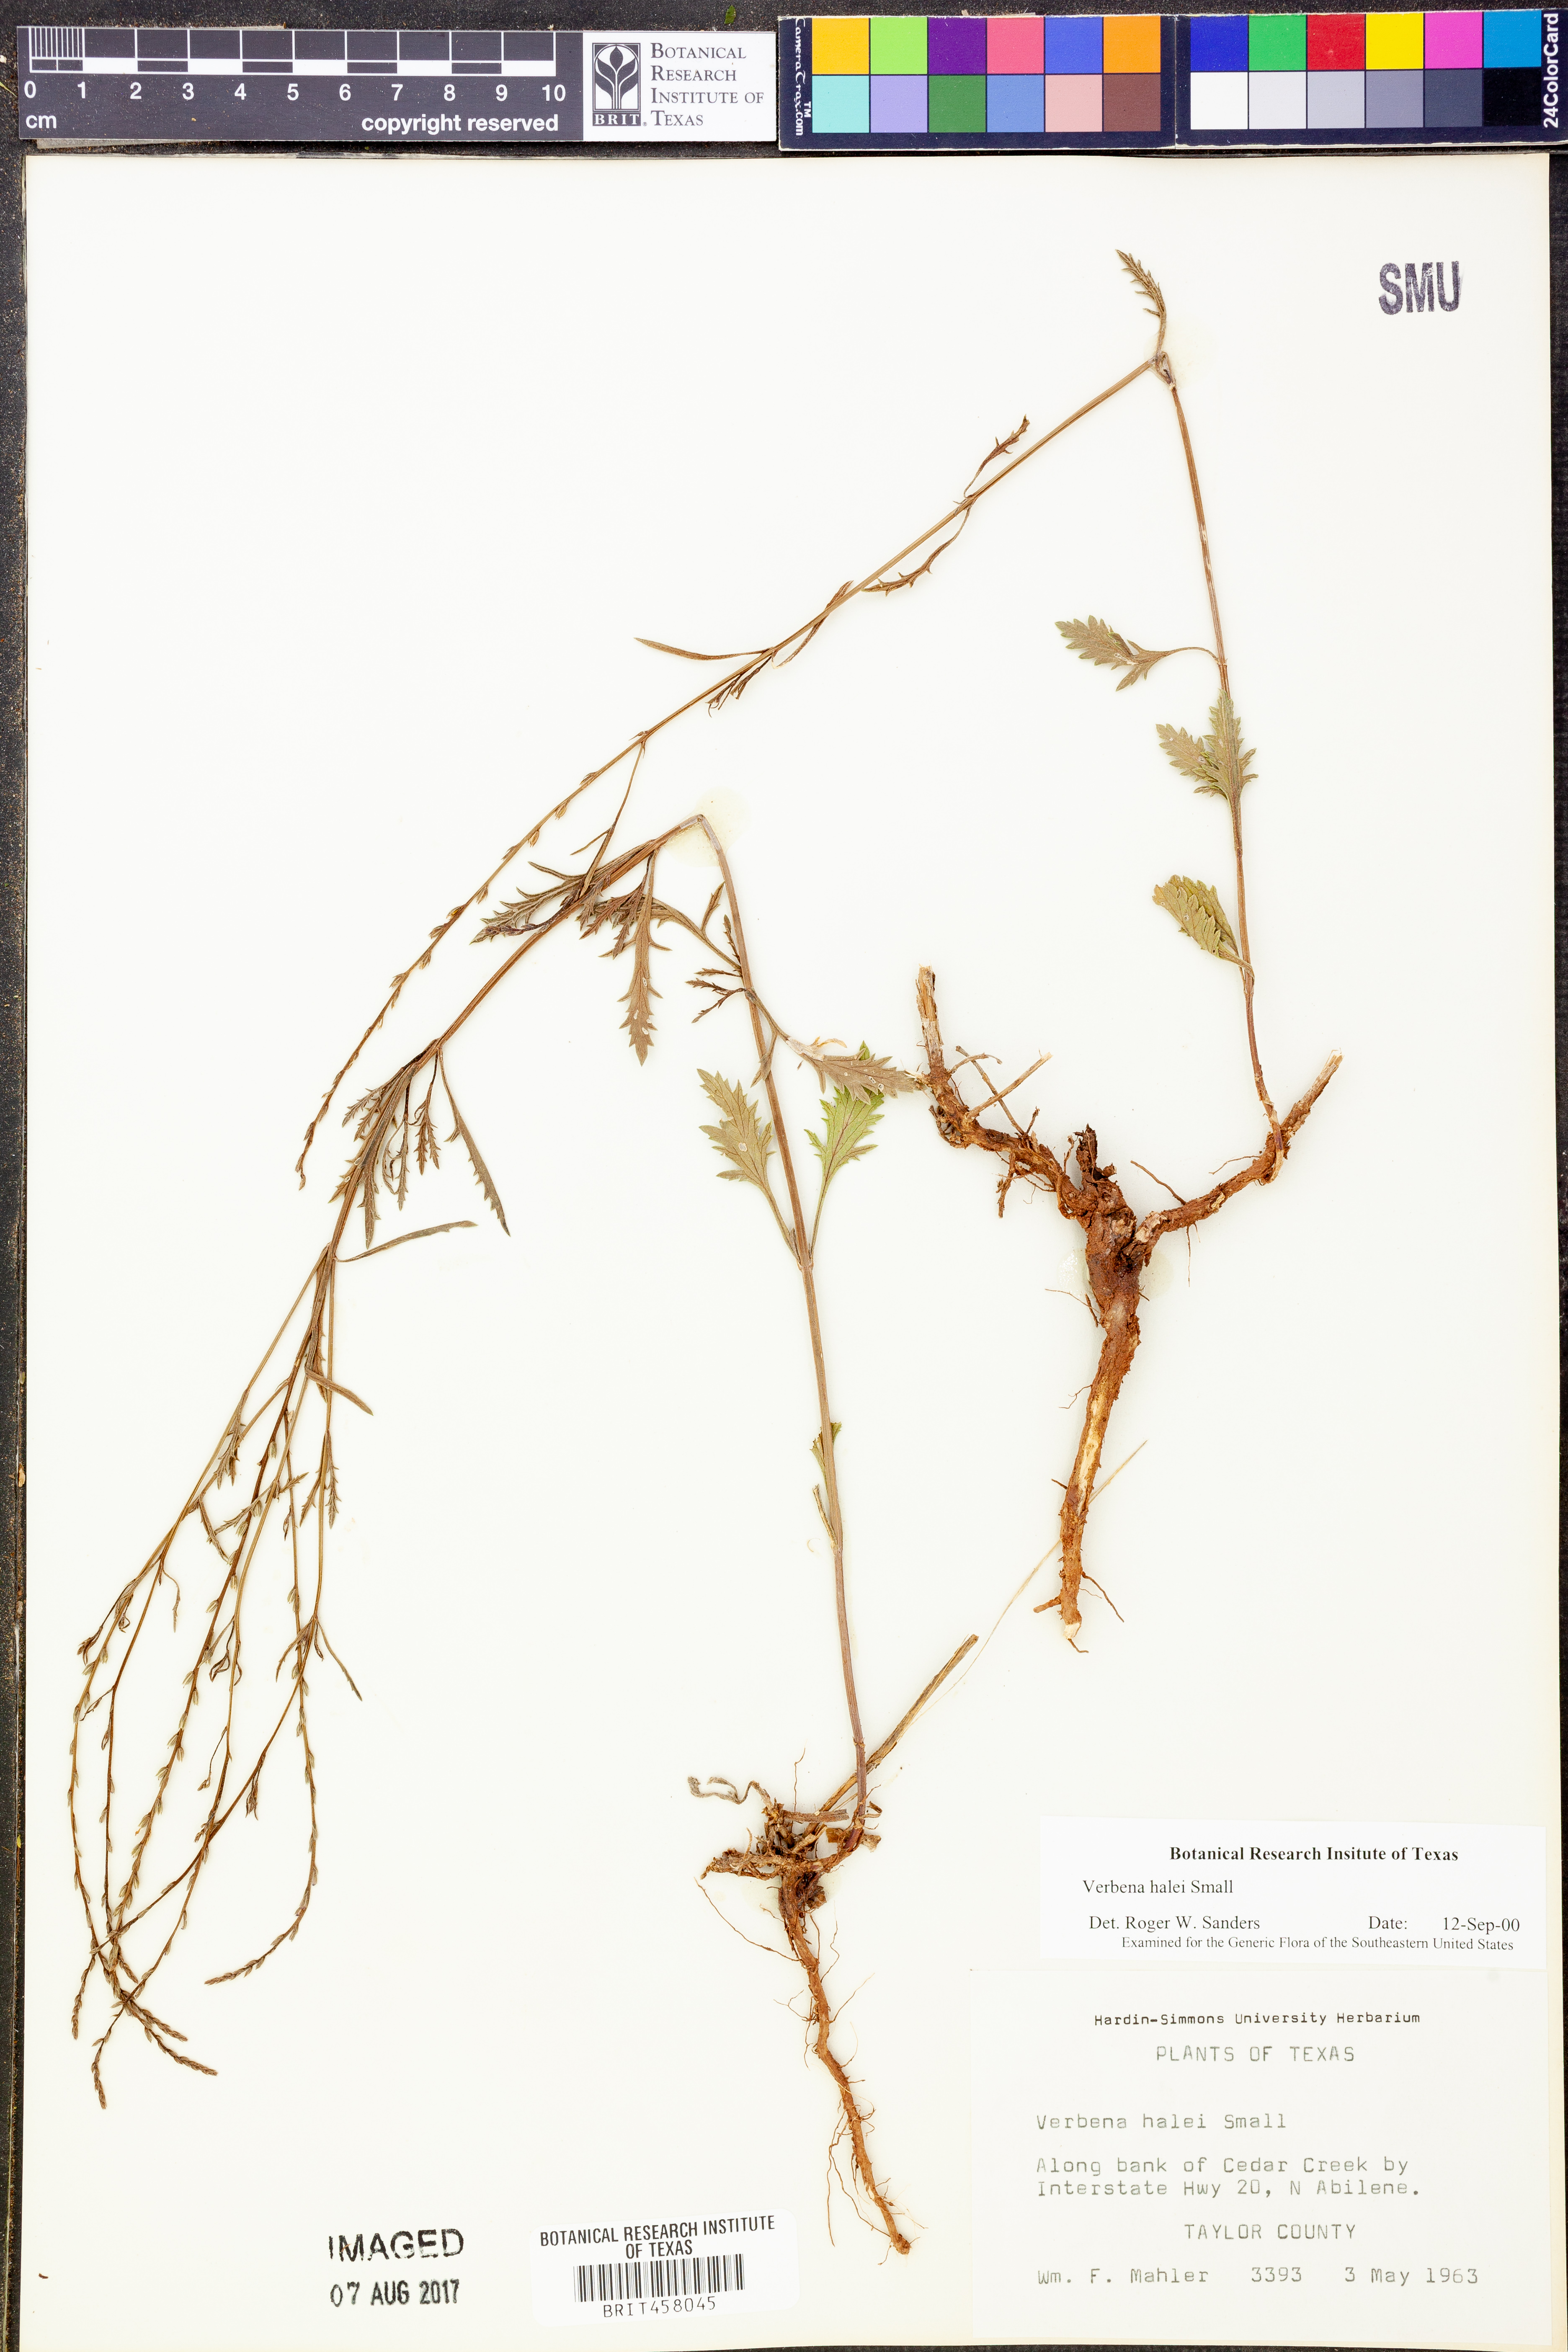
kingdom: Plantae
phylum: Tracheophyta
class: Magnoliopsida
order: Lamiales
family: Verbenaceae
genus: Verbena
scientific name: Verbena halei
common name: Texas vervain
